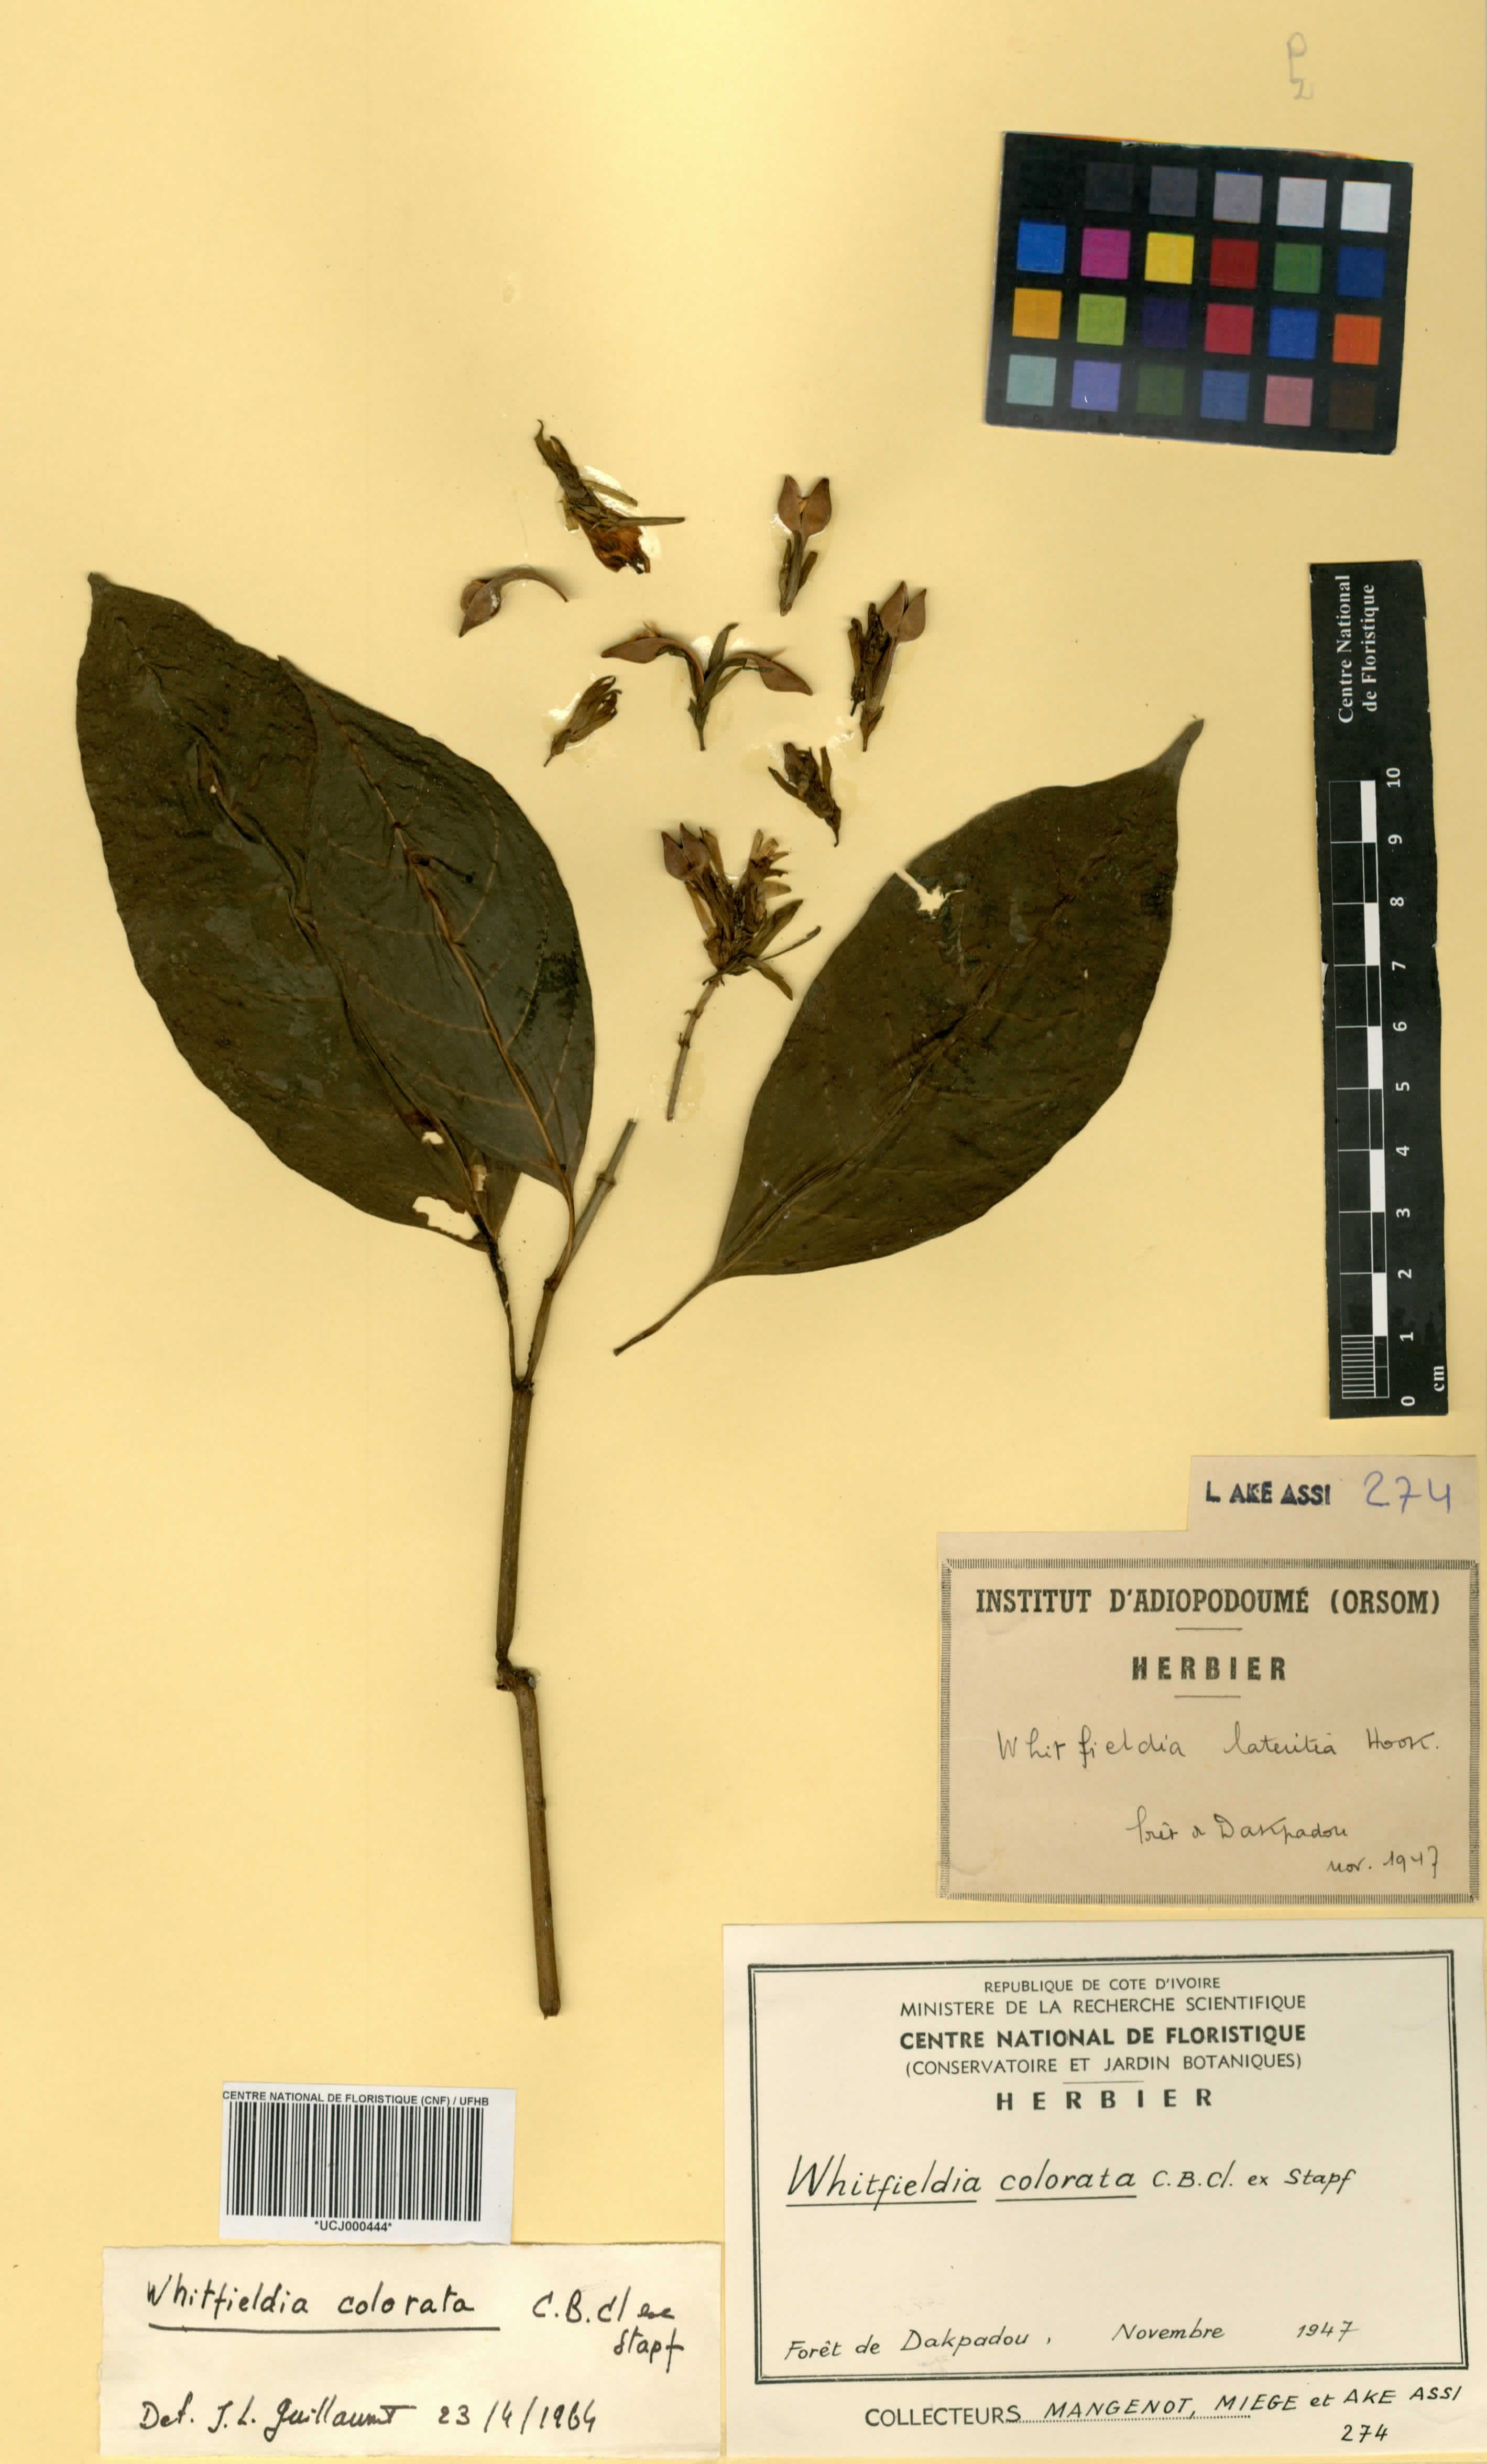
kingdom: Plantae
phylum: Tracheophyta
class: Magnoliopsida
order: Lamiales
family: Acanthaceae
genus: Whitfieldia
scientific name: Whitfieldia colorata
